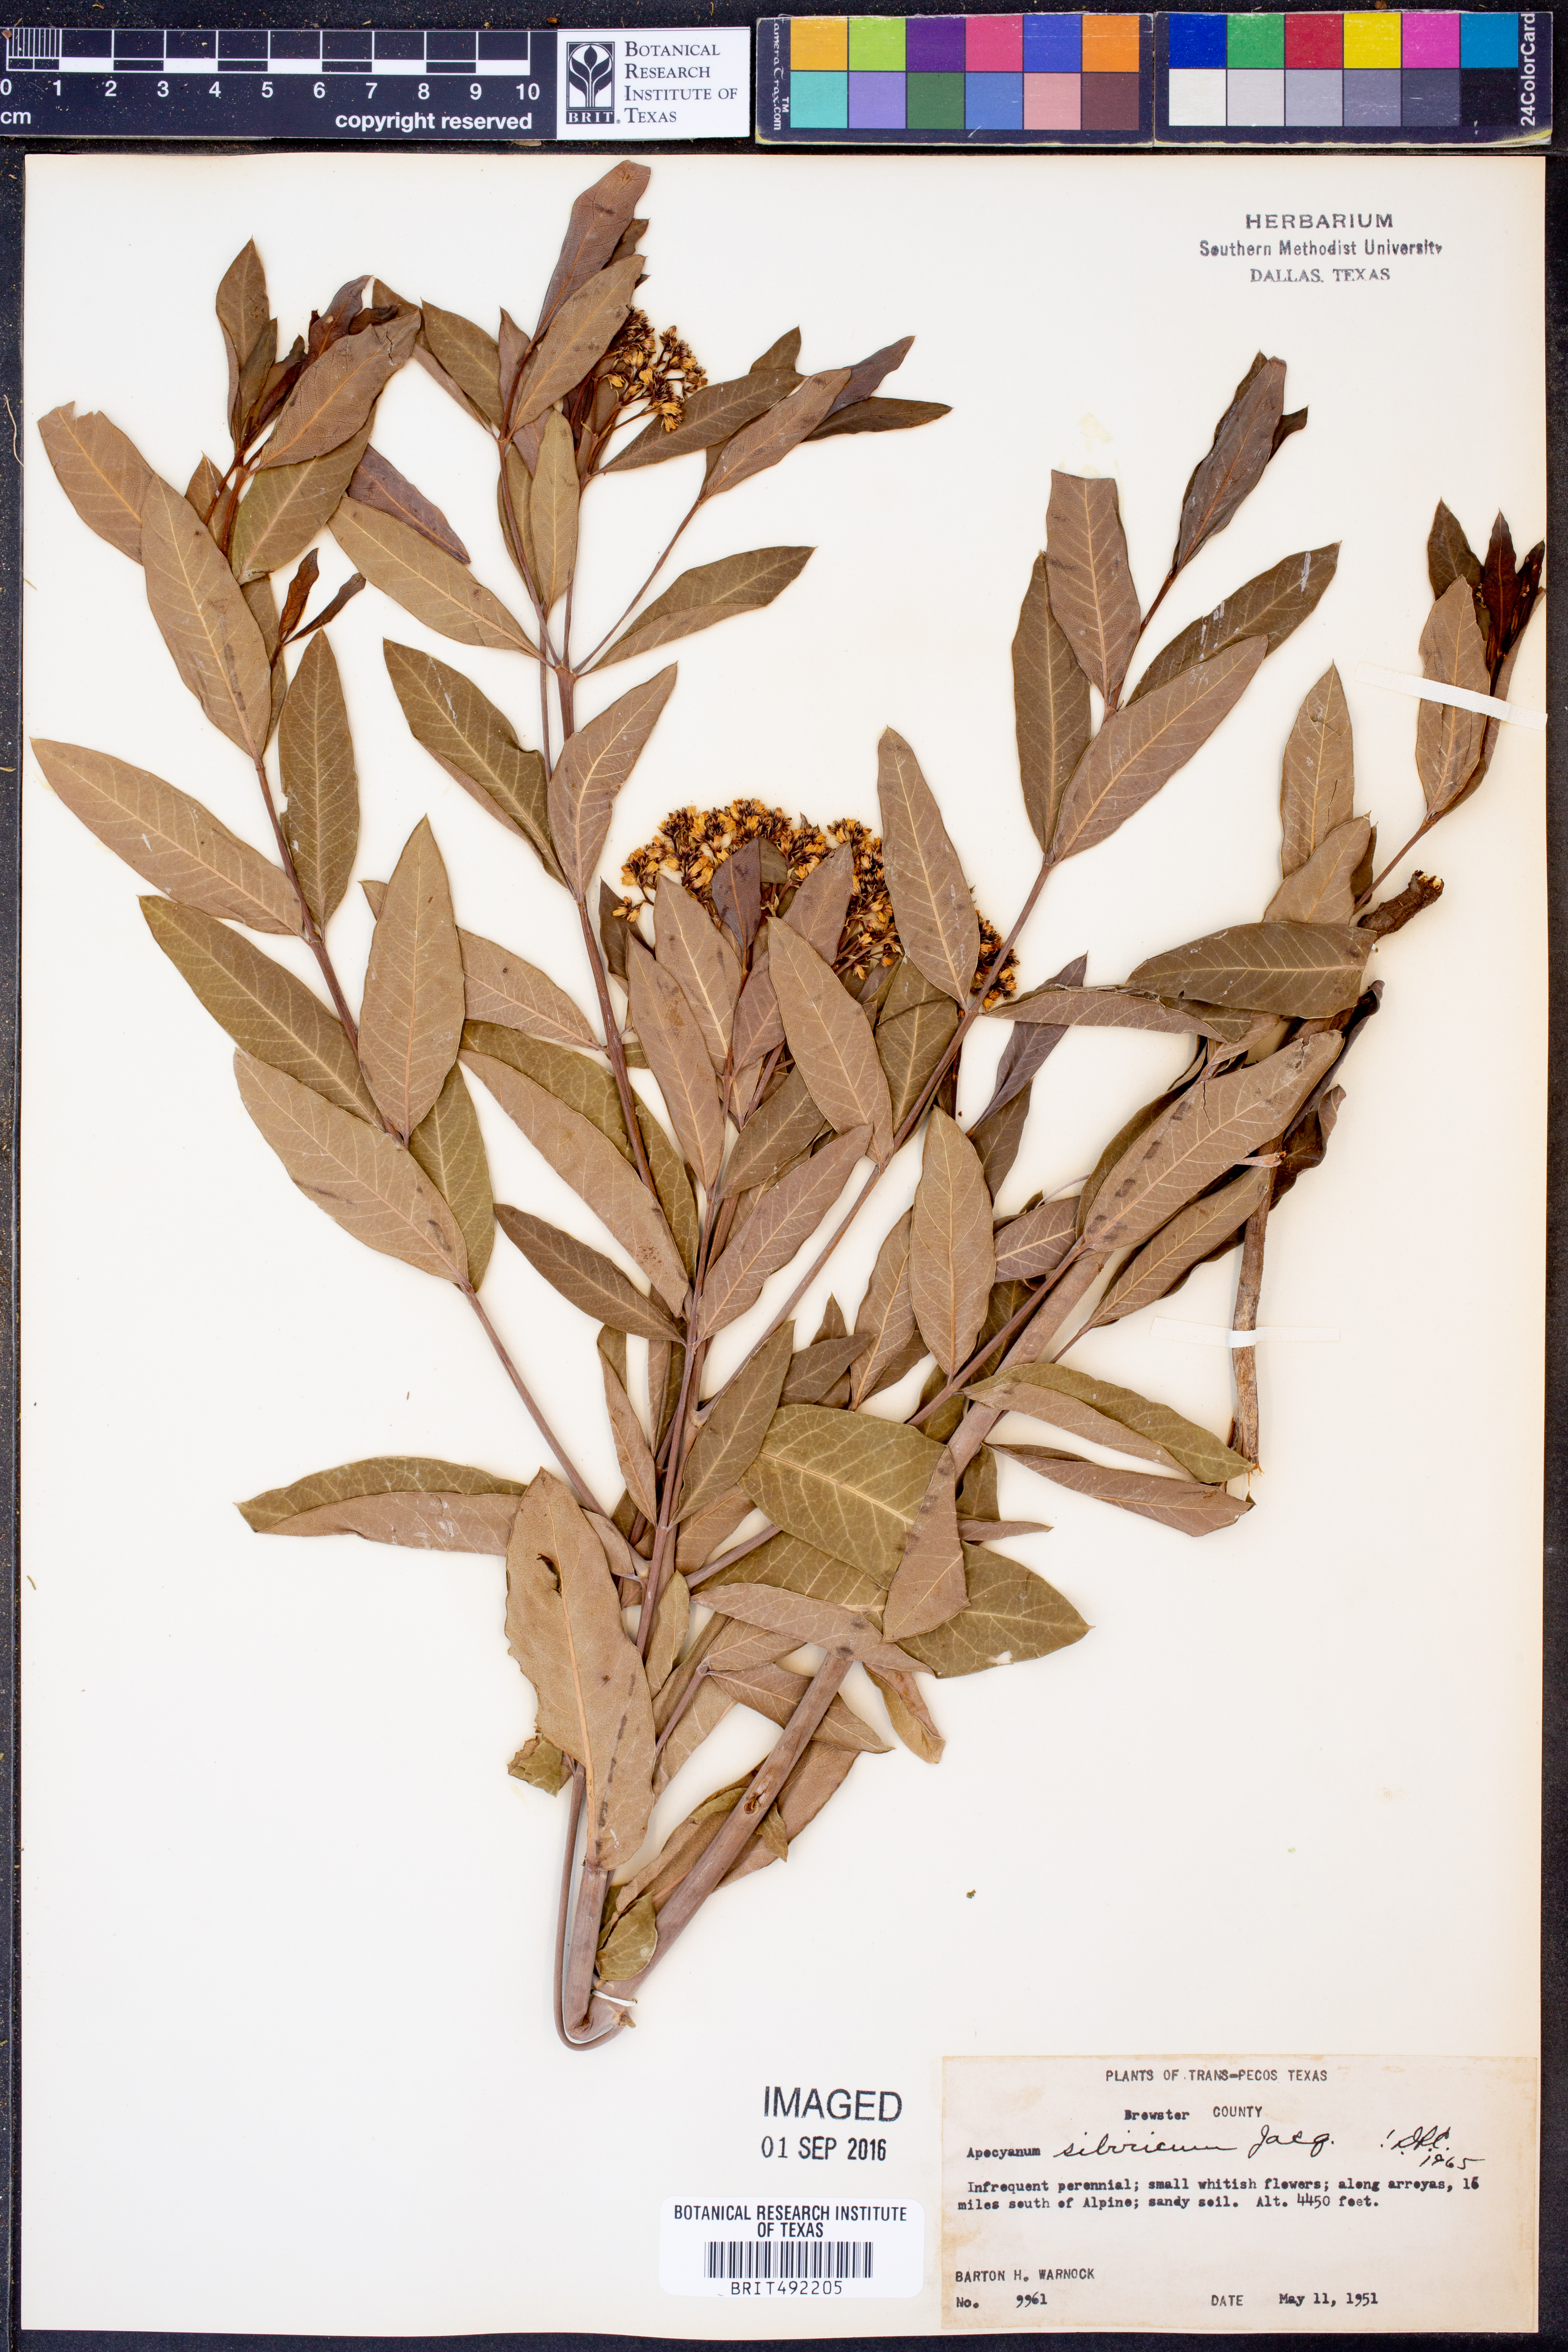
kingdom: Plantae
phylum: Tracheophyta
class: Magnoliopsida
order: Gentianales
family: Apocynaceae
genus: Apocynum
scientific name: Apocynum cannabinum
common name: Hemp dogbane
